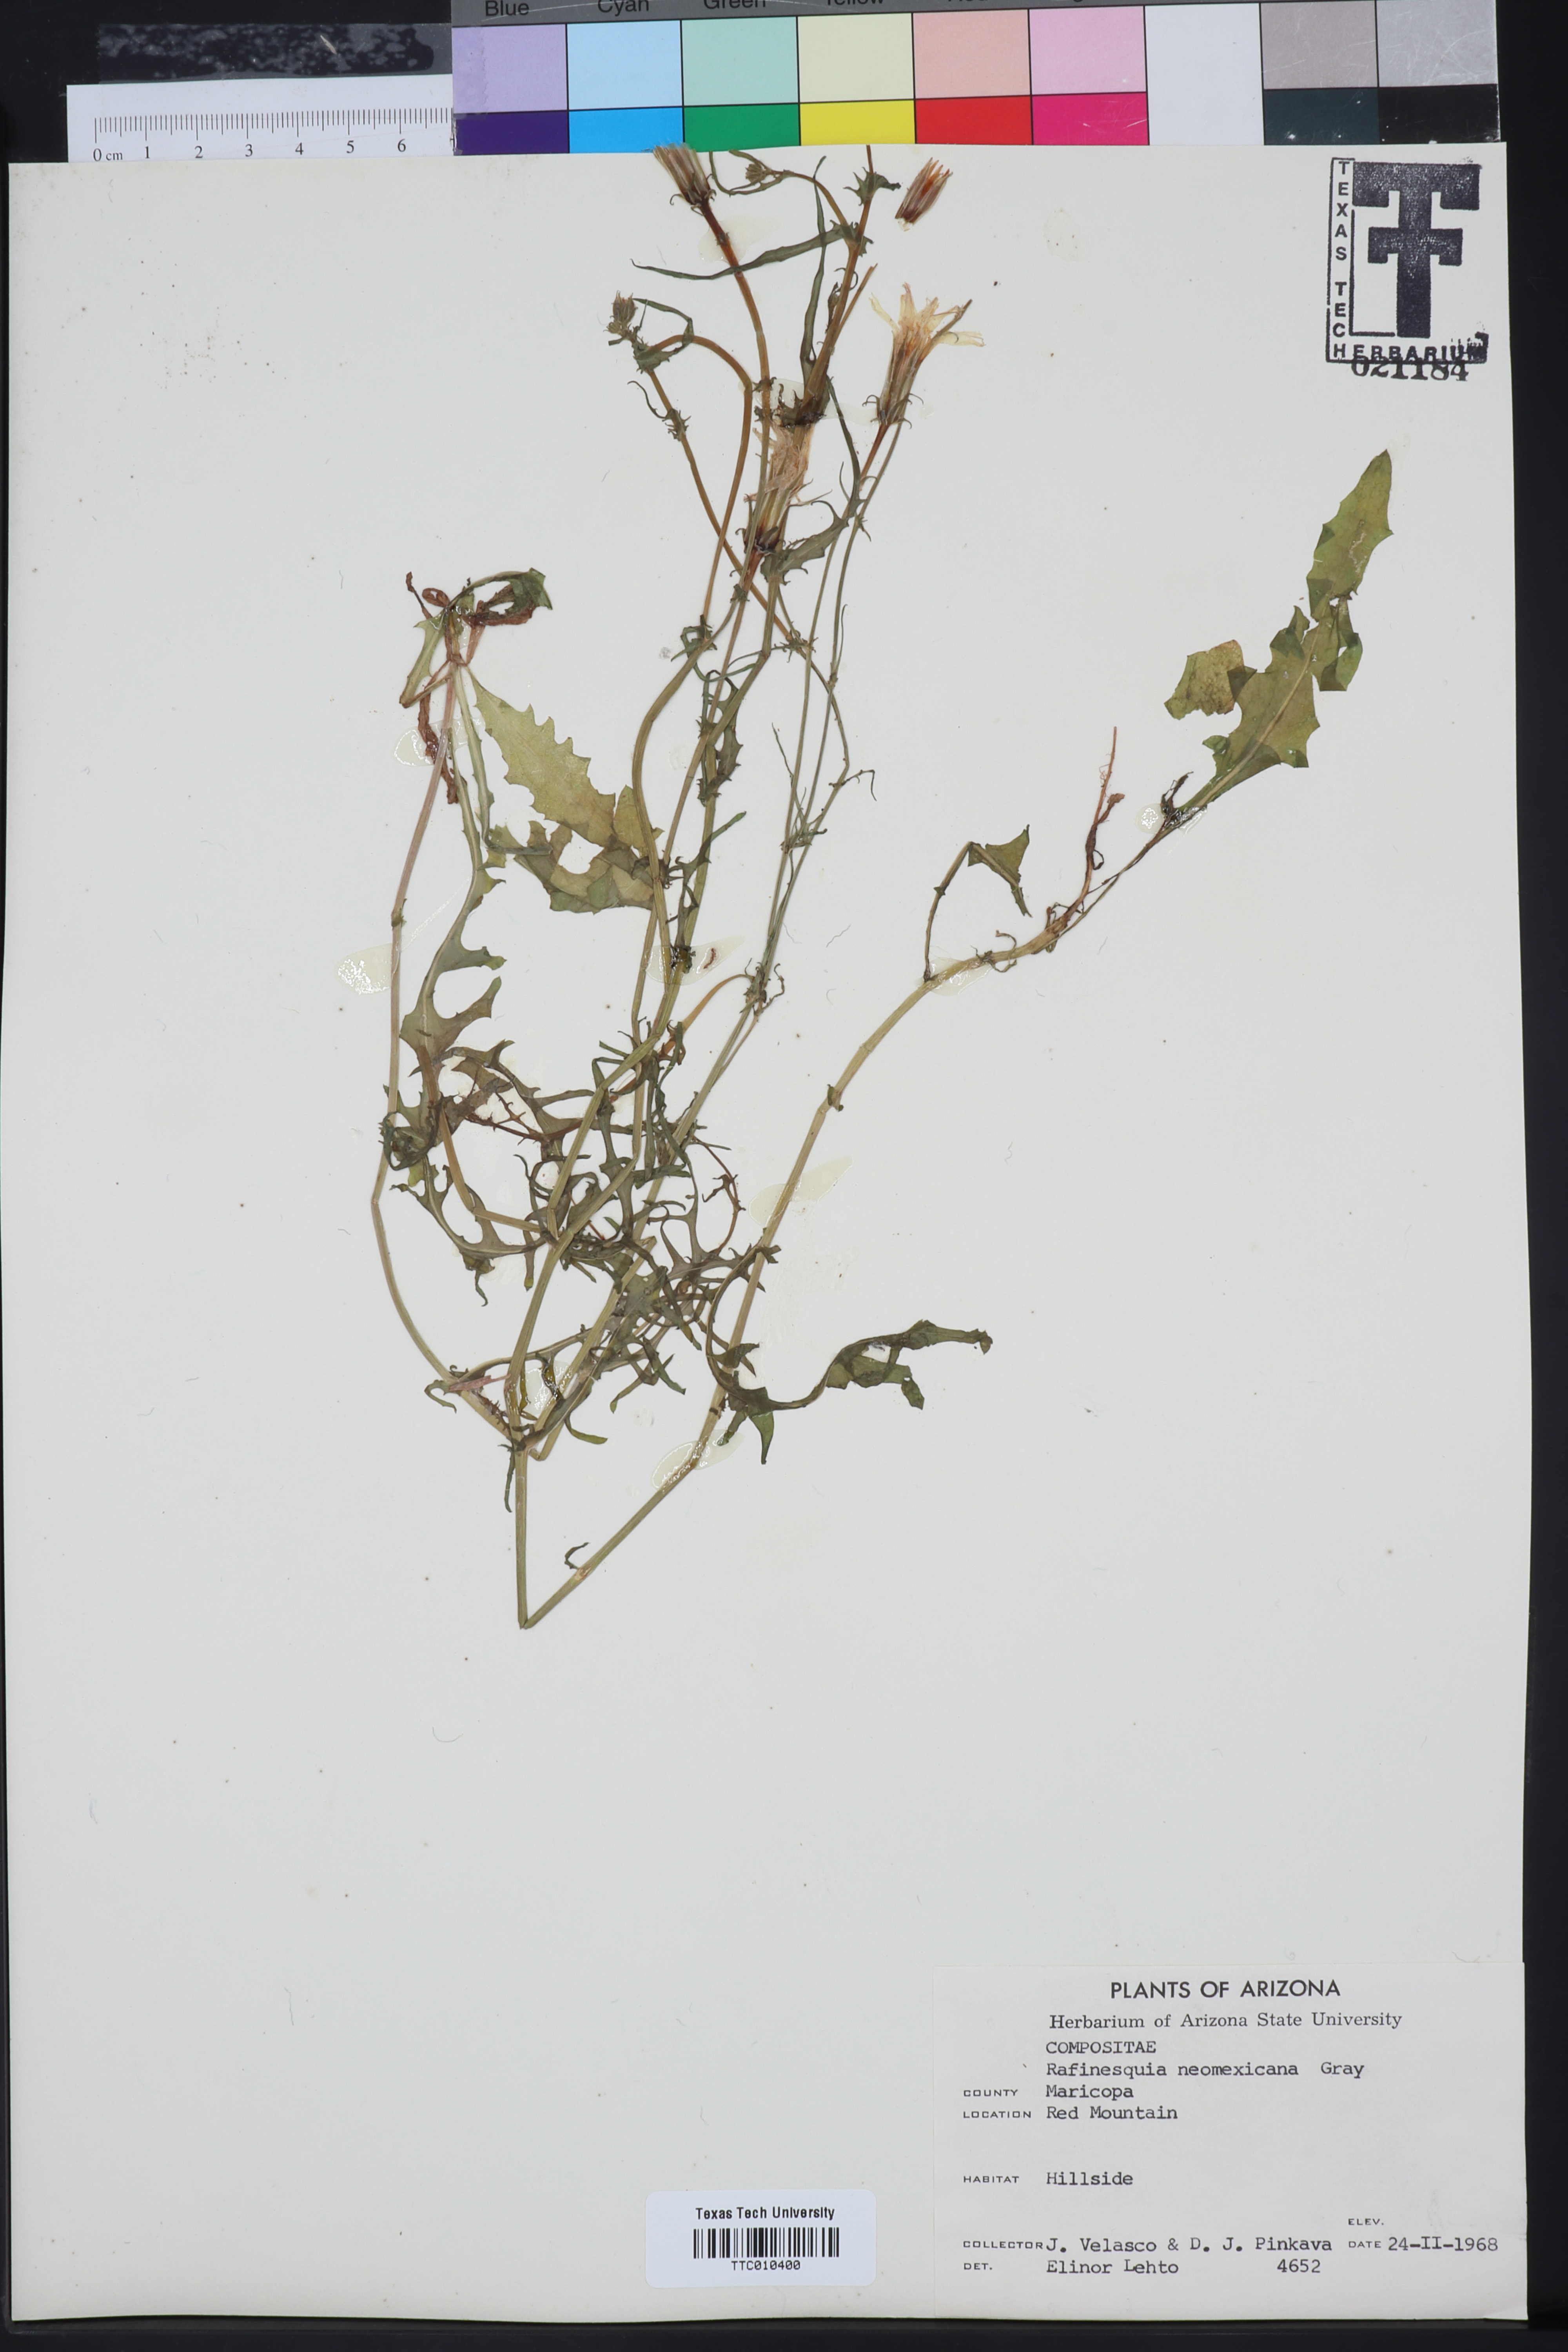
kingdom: Plantae
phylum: Tracheophyta
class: Magnoliopsida
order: Asterales
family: Asteraceae
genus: Rafinesquia
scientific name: Rafinesquia neomexicana
